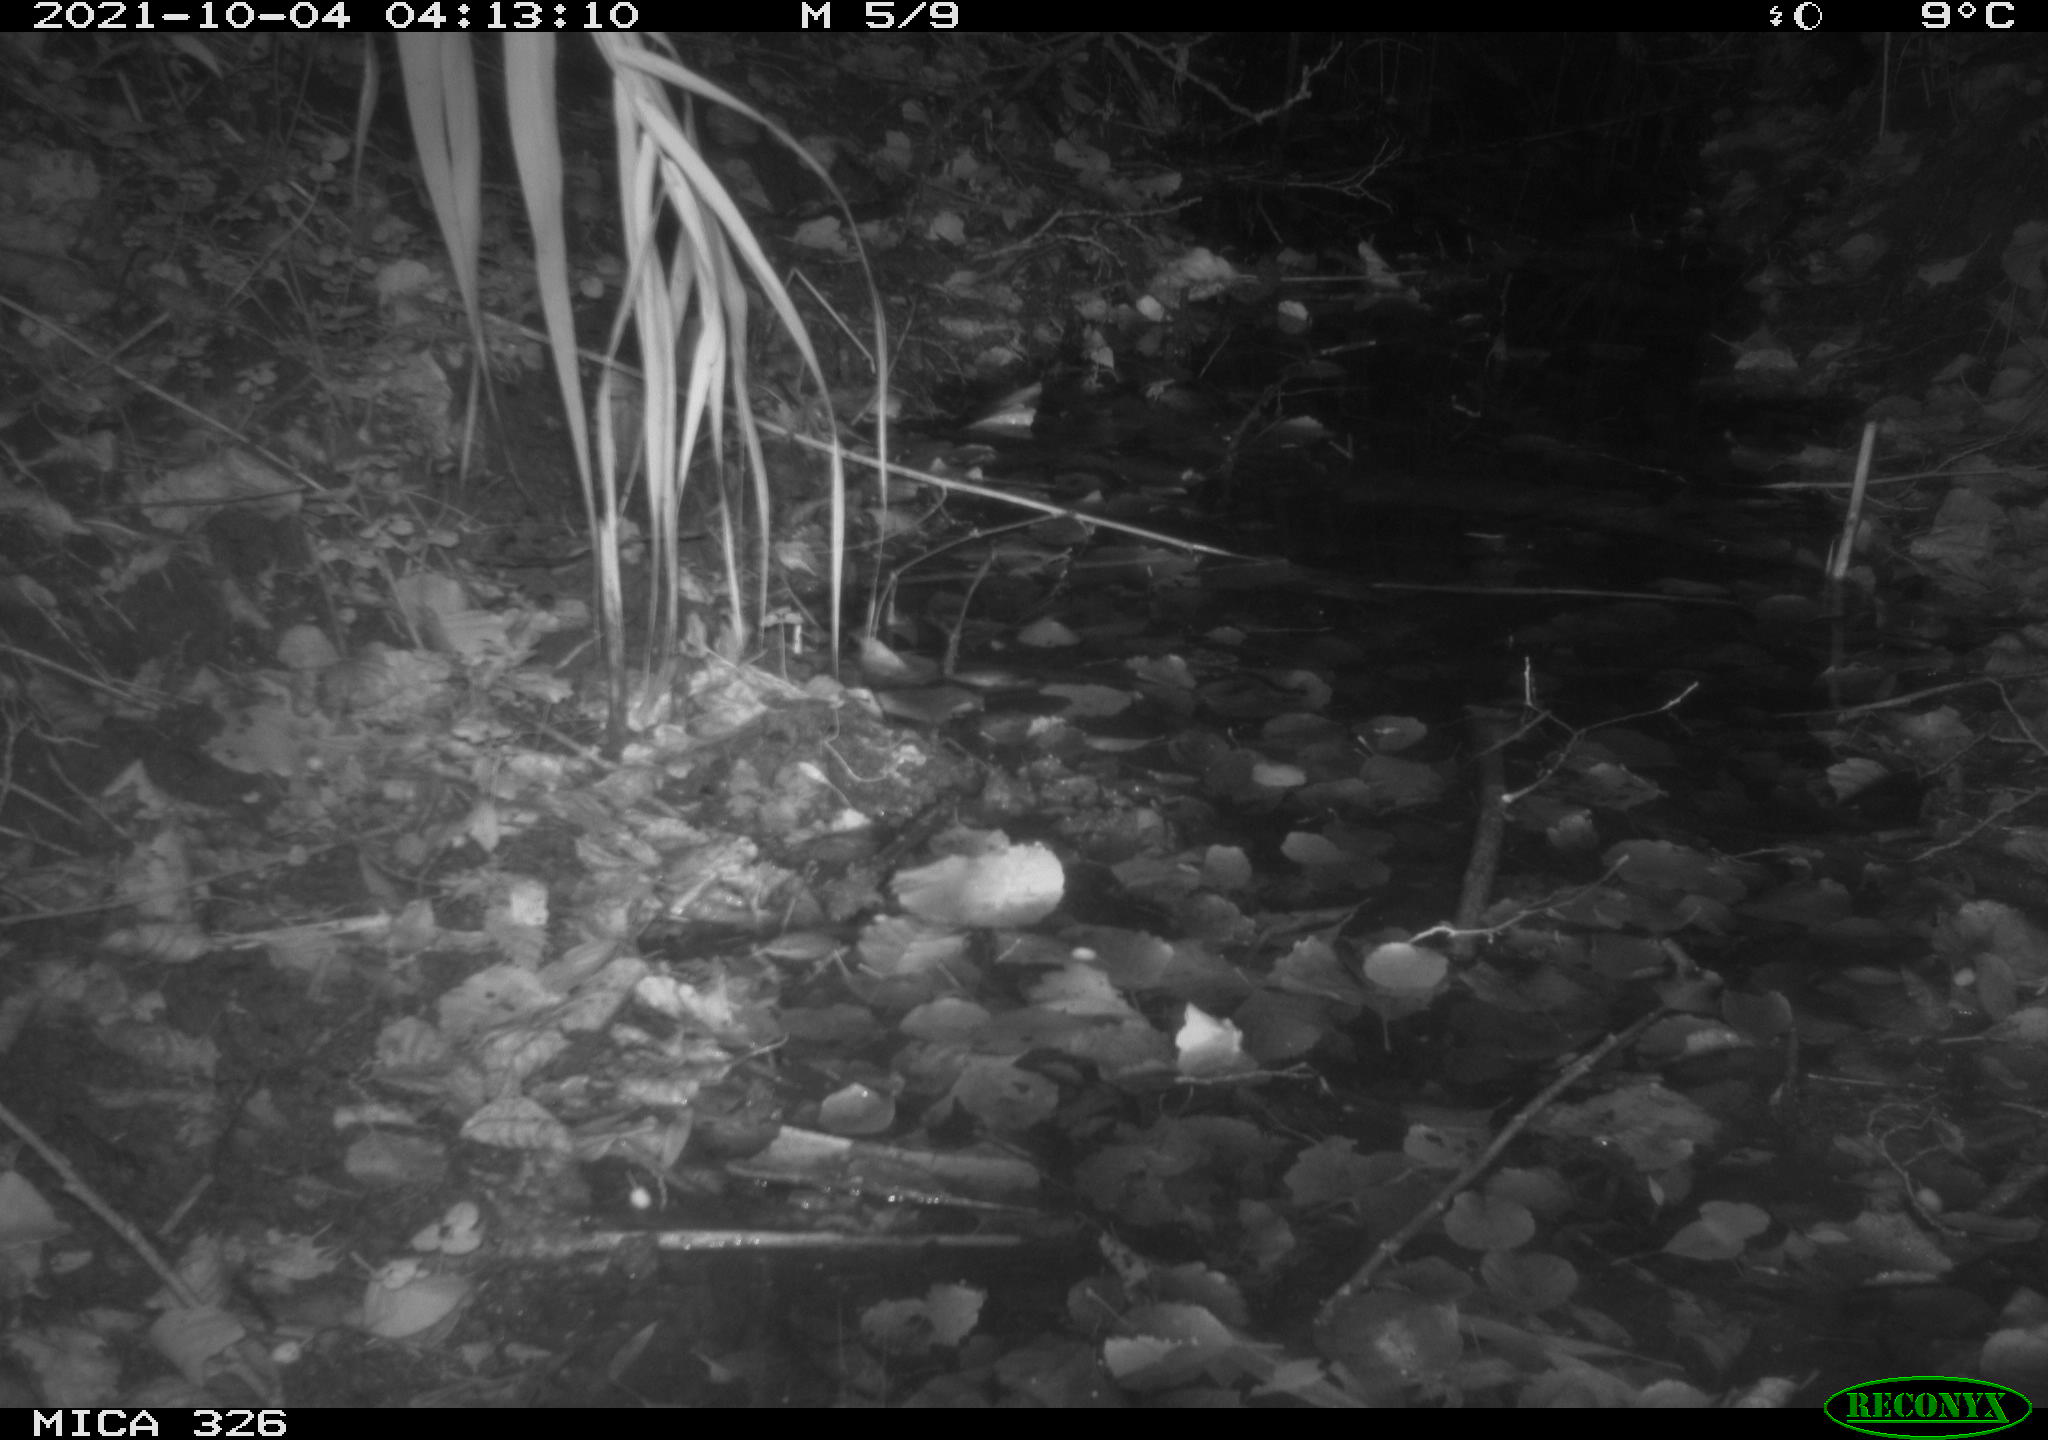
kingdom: Animalia
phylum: Chordata
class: Mammalia
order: Rodentia
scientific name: Rodentia
